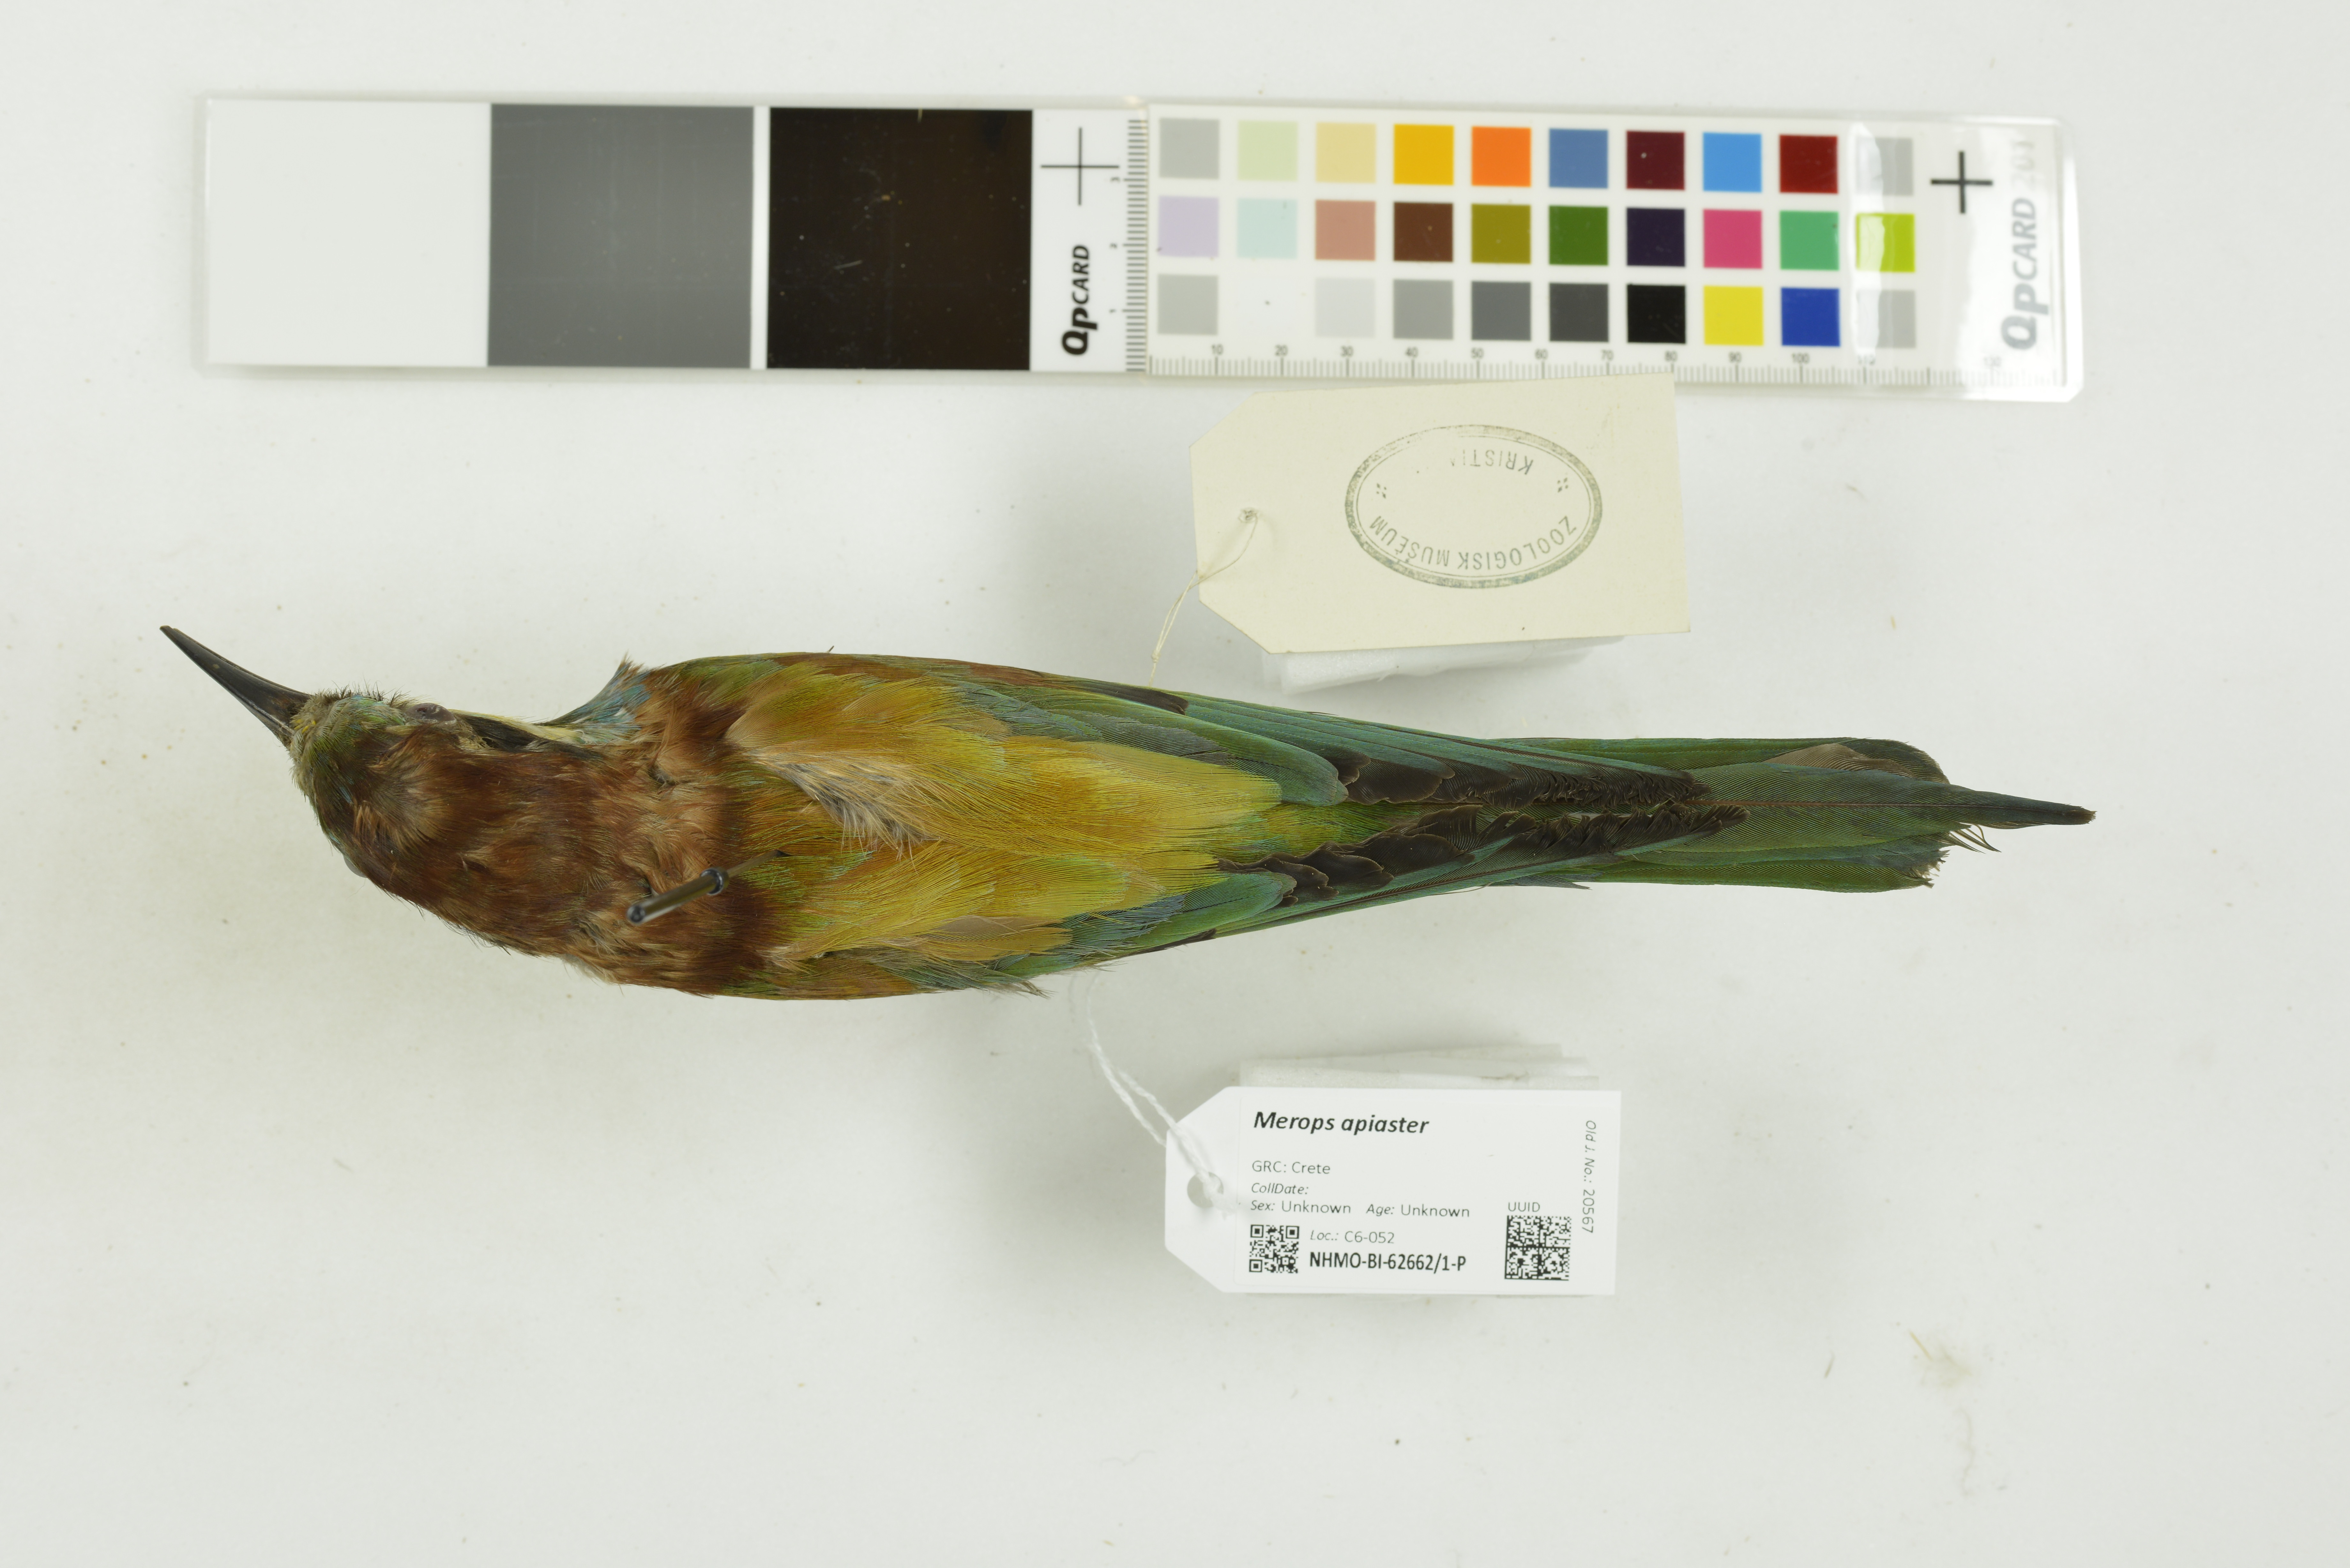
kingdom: Animalia
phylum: Chordata
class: Aves
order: Coraciiformes
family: Meropidae
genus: Merops
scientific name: Merops apiaster
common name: European bee-eater
